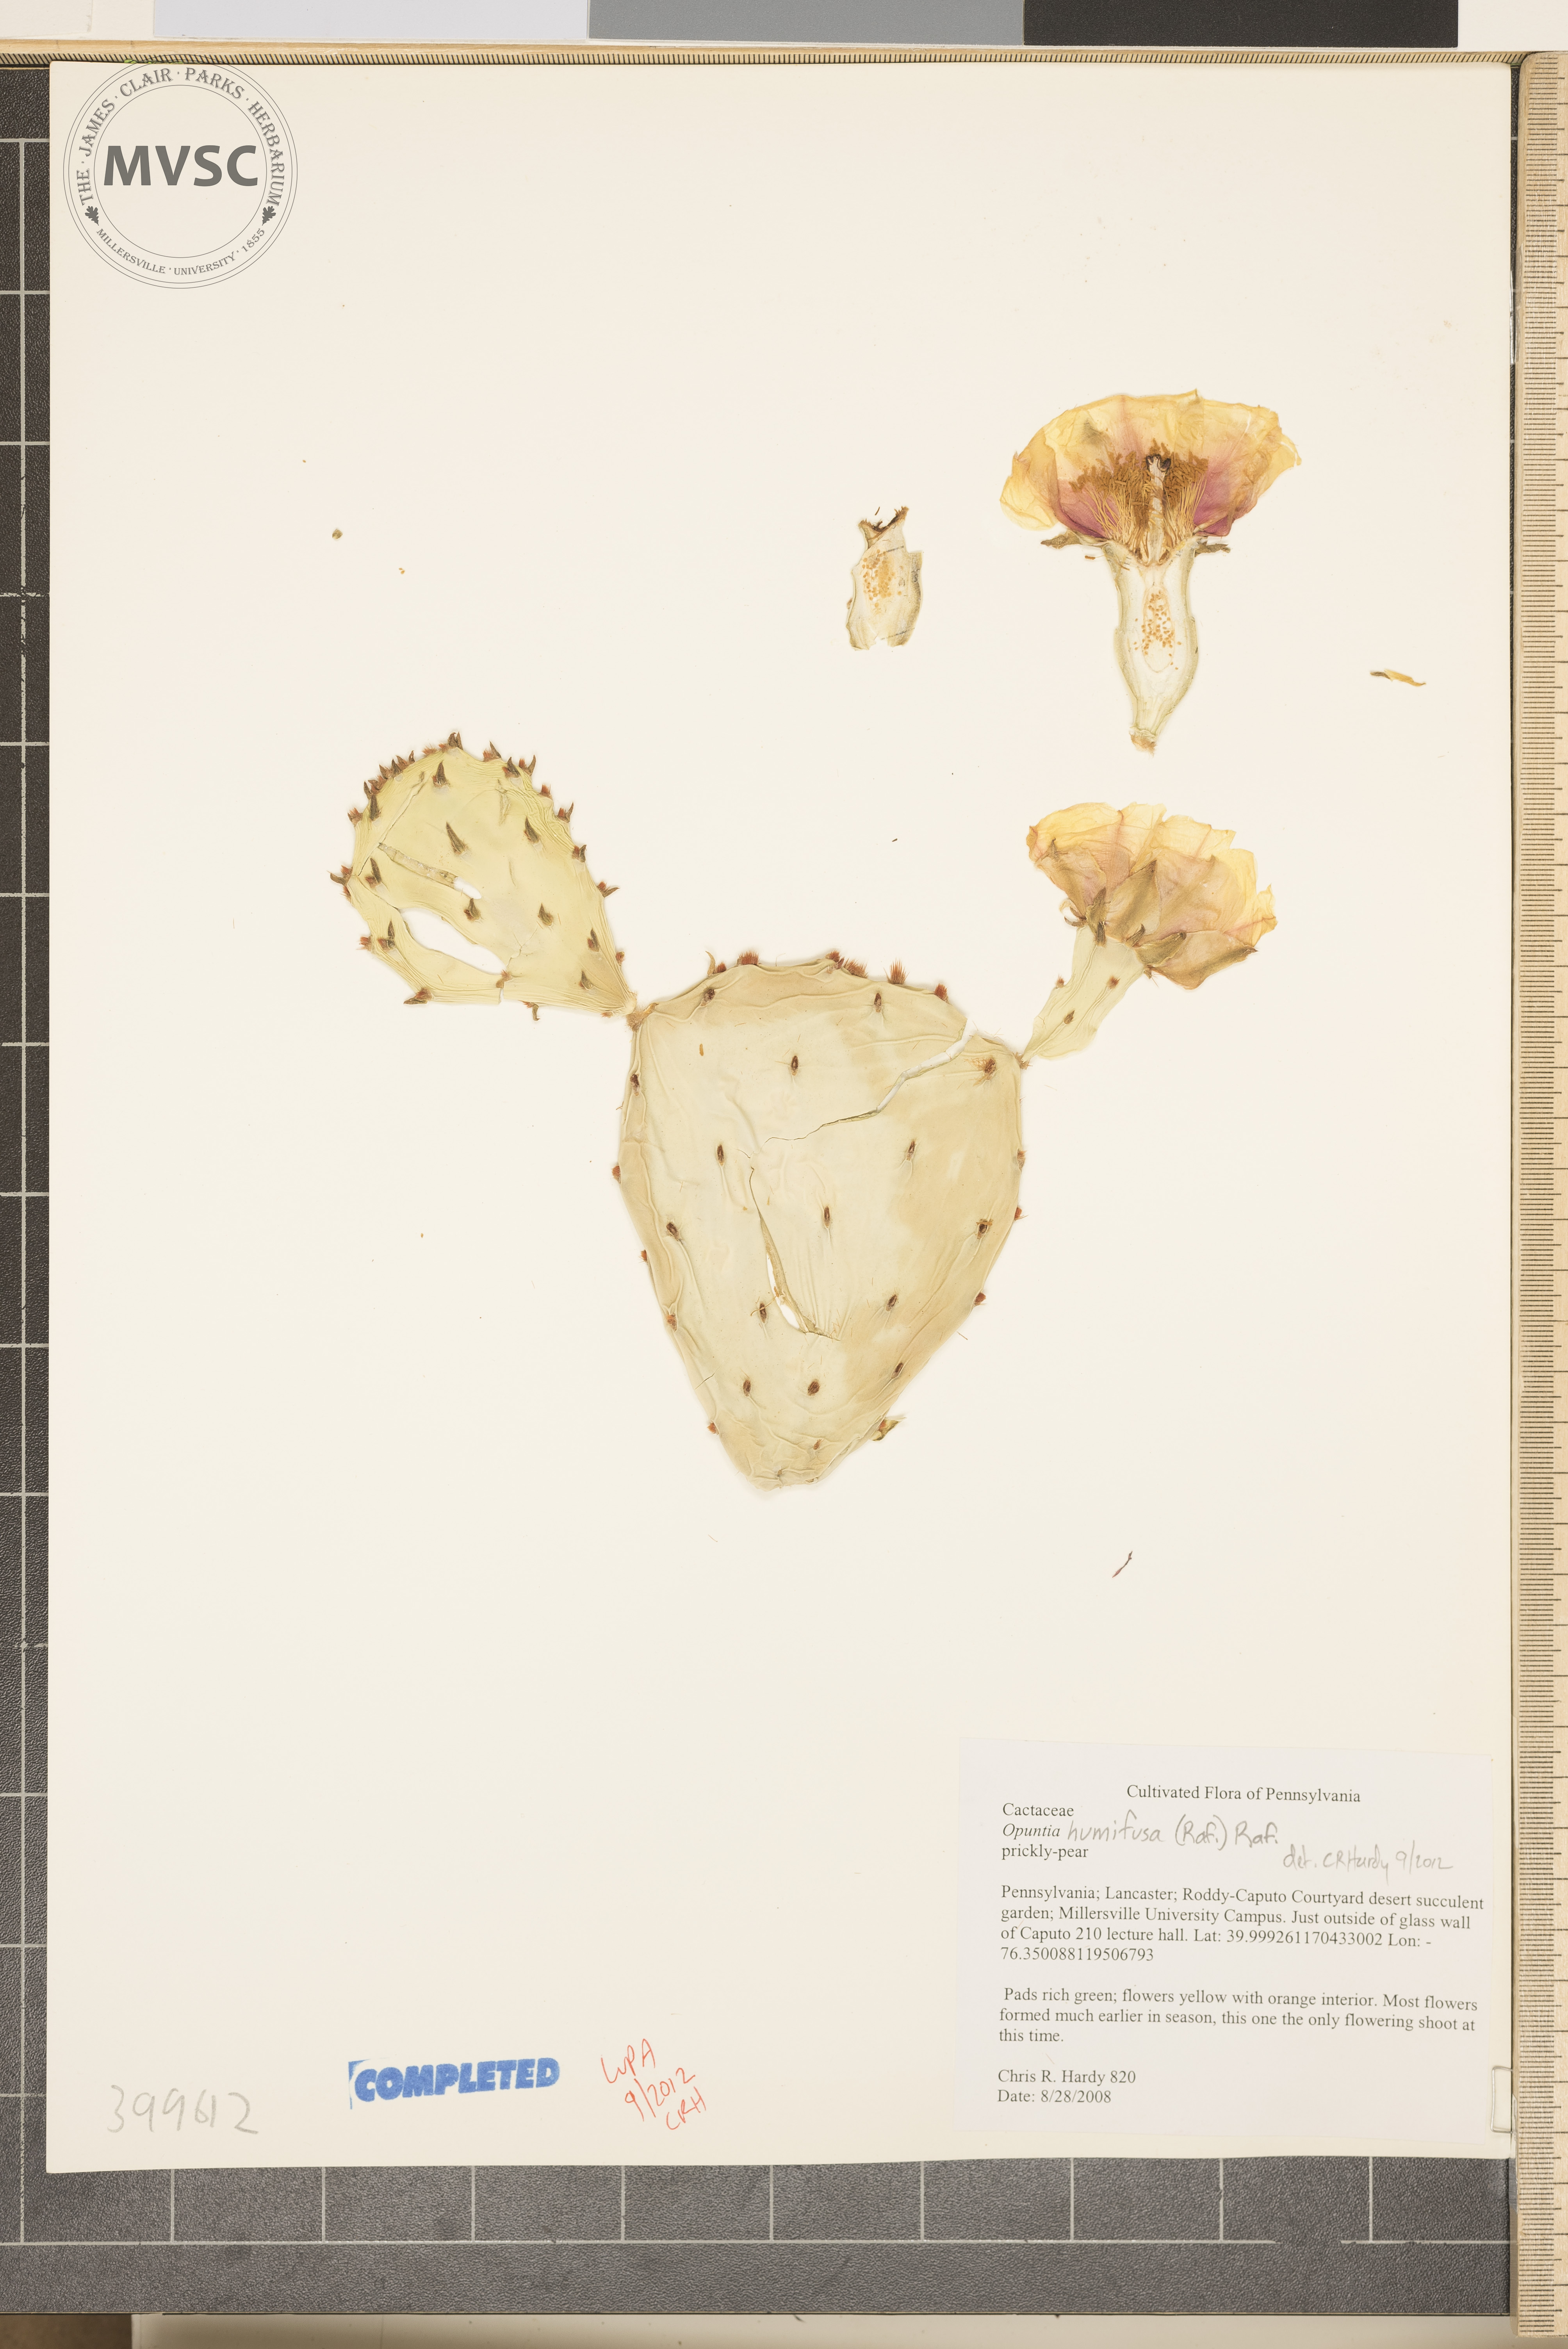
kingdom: Plantae
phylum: Tracheophyta
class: Magnoliopsida
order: Caryophyllales
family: Cactaceae
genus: Opuntia
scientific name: Opuntia humifusa
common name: eastern prickly-pear cactus
